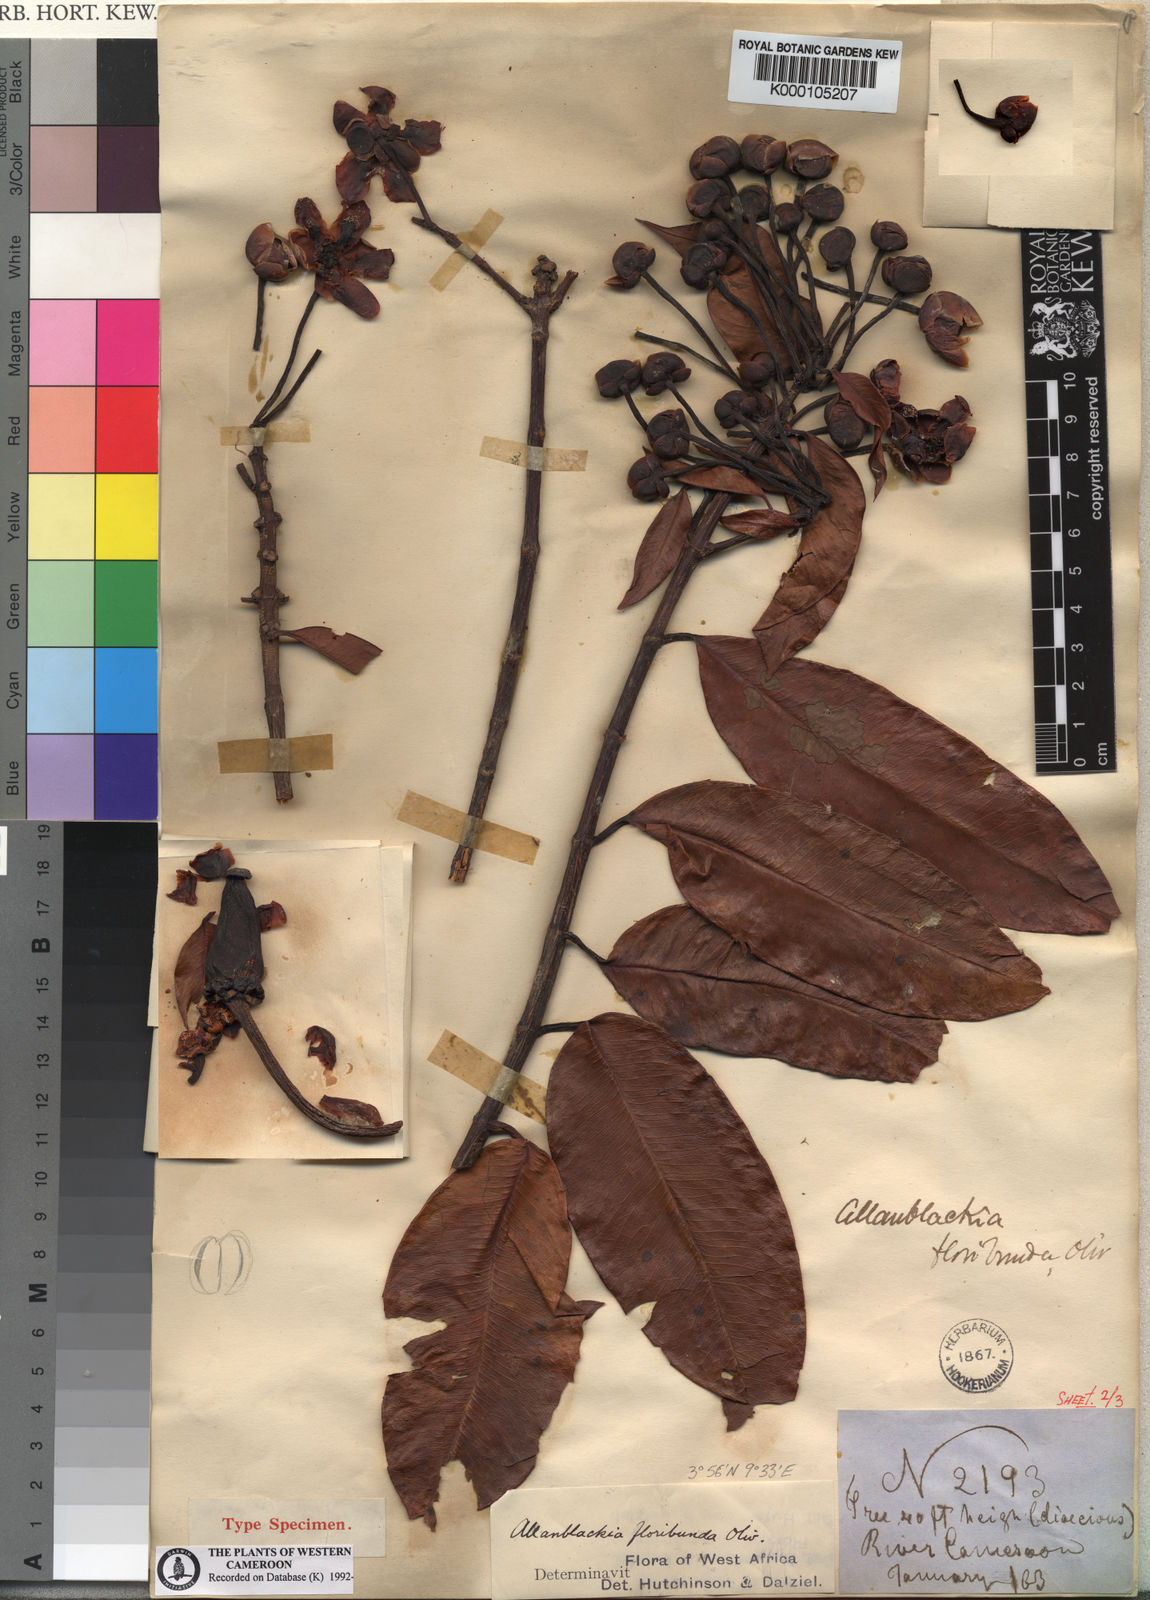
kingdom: Plantae
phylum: Tracheophyta
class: Magnoliopsida
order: Malpighiales
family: Clusiaceae
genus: Allanblackia
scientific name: Allanblackia floribunda
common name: Tallow tree
